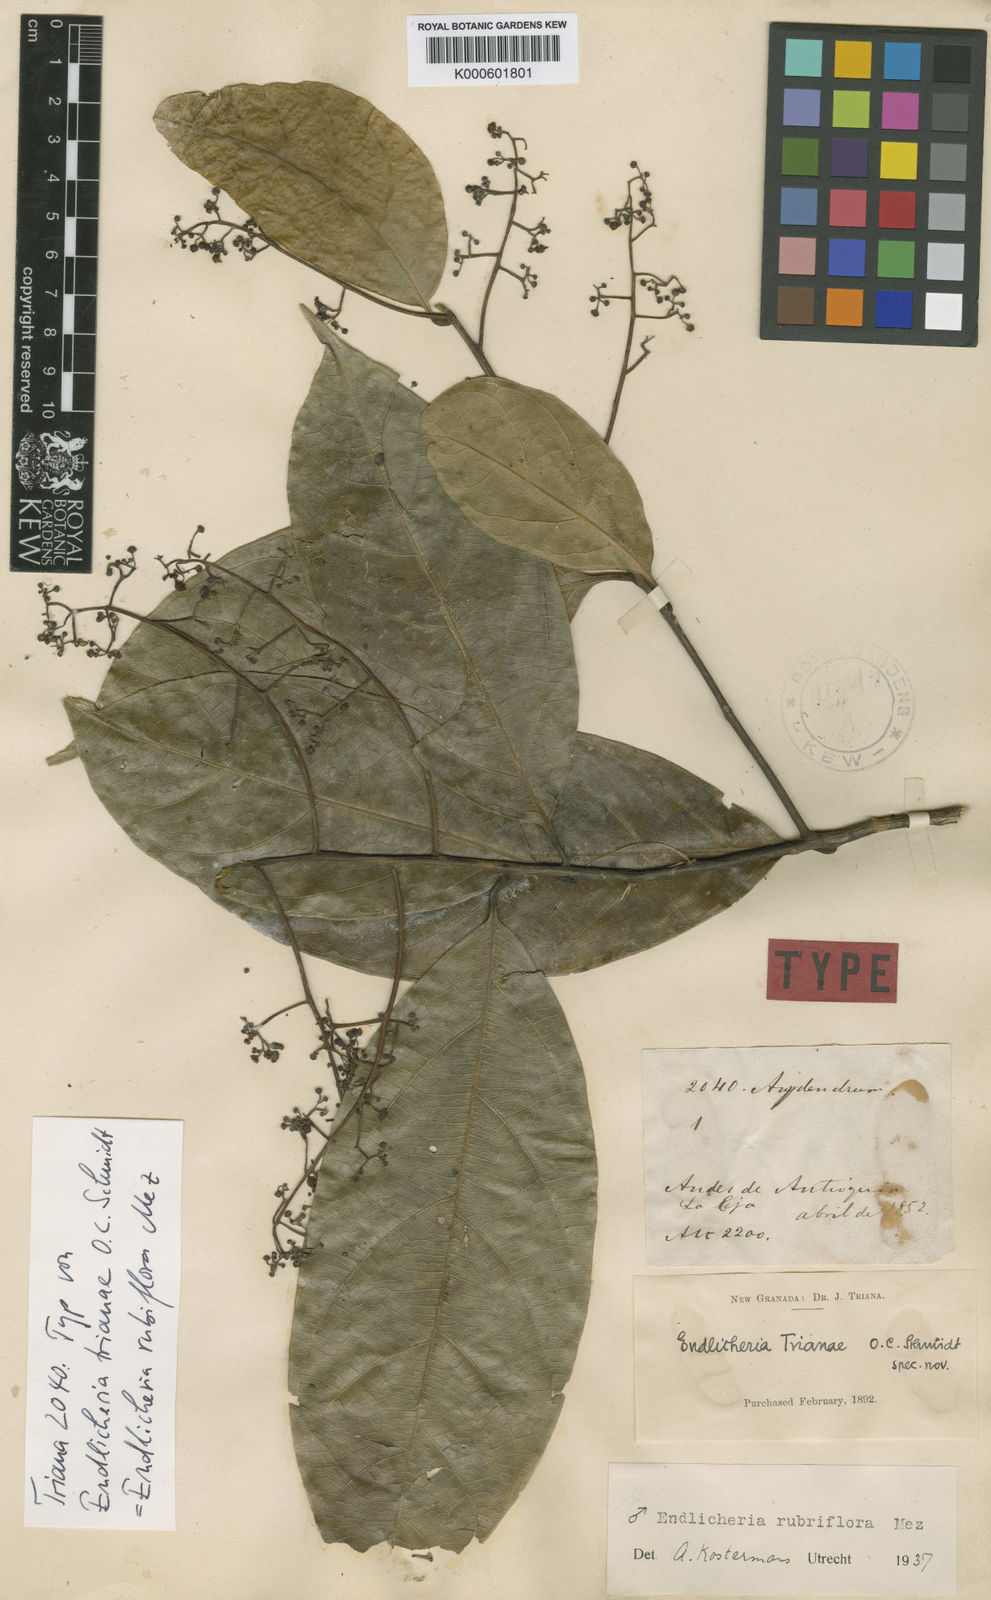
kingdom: Plantae
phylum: Tracheophyta
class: Magnoliopsida
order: Laurales
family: Lauraceae
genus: Endlicheria
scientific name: Endlicheria rubriflora
